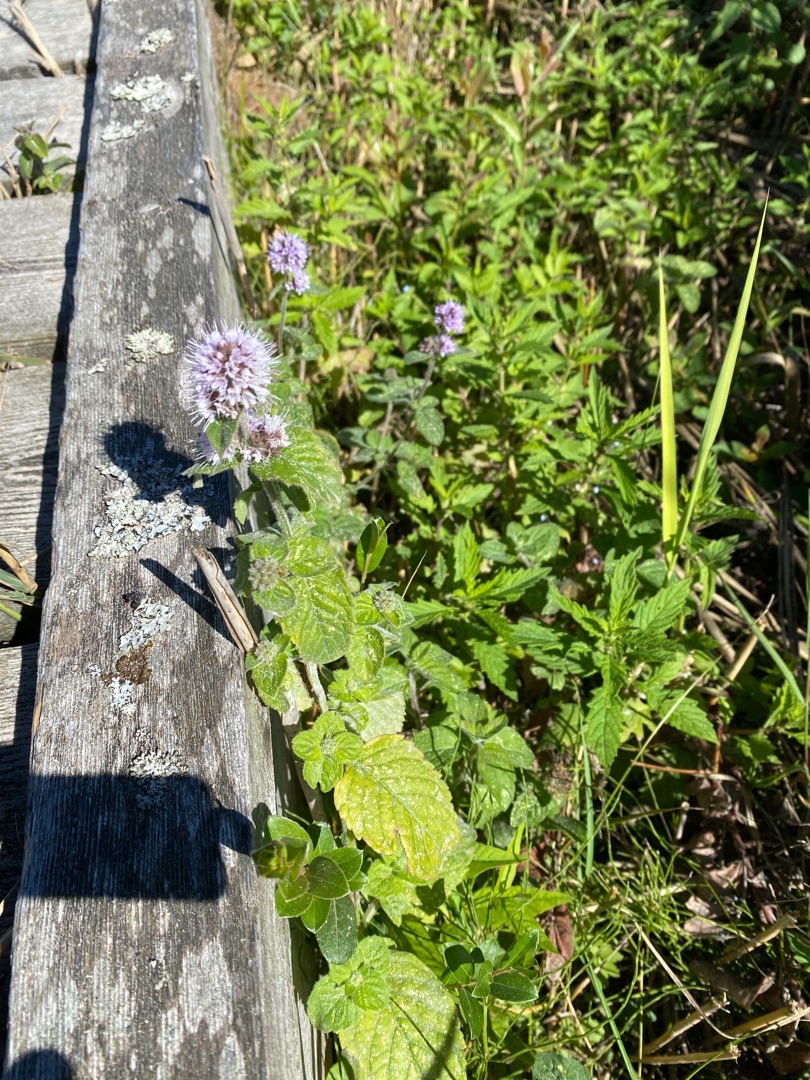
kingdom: Plantae
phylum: Tracheophyta
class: Magnoliopsida
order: Lamiales
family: Lamiaceae
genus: Mentha
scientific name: Mentha aquatica
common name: Vand-mynte
